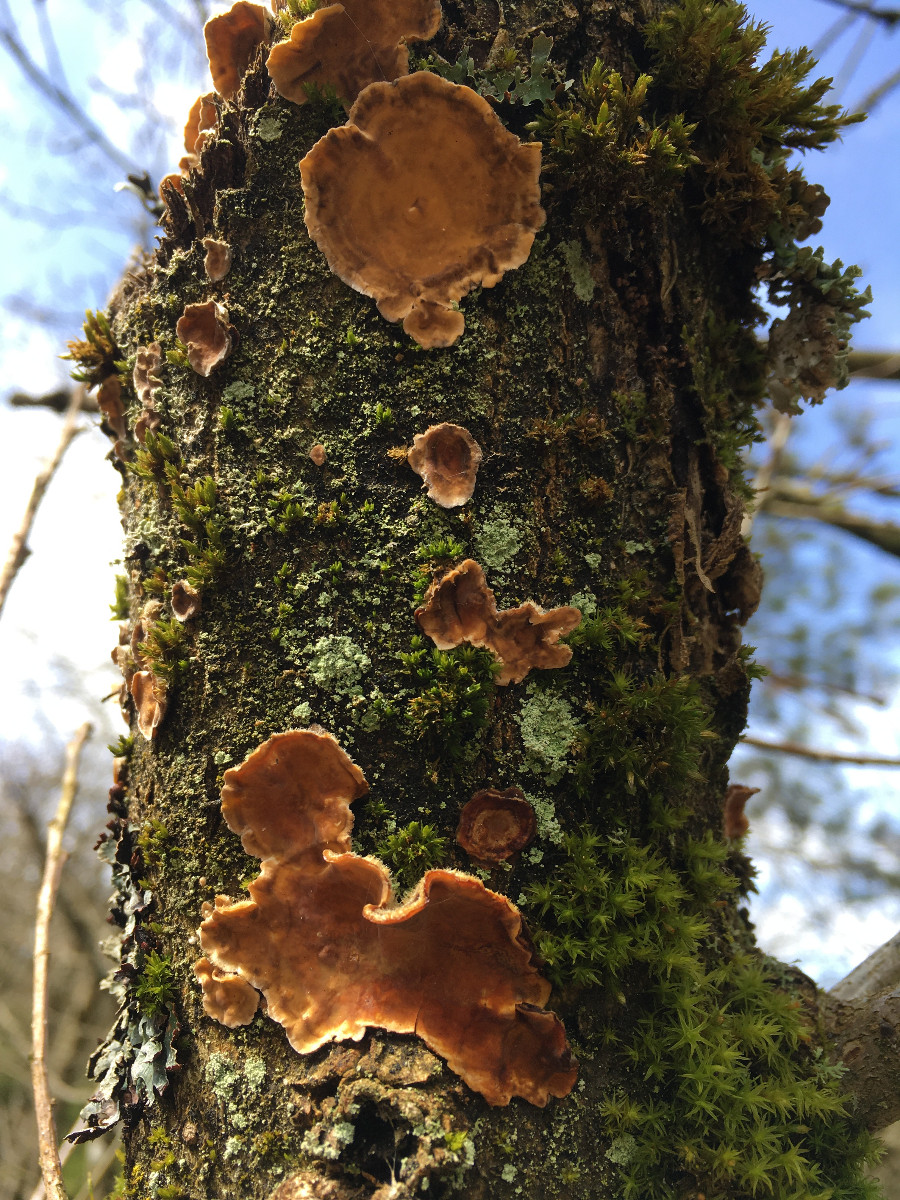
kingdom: Fungi
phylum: Basidiomycota
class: Agaricomycetes
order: Russulales
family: Stereaceae
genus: Stereum
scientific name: Stereum hirsutum
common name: håret lædersvamp
